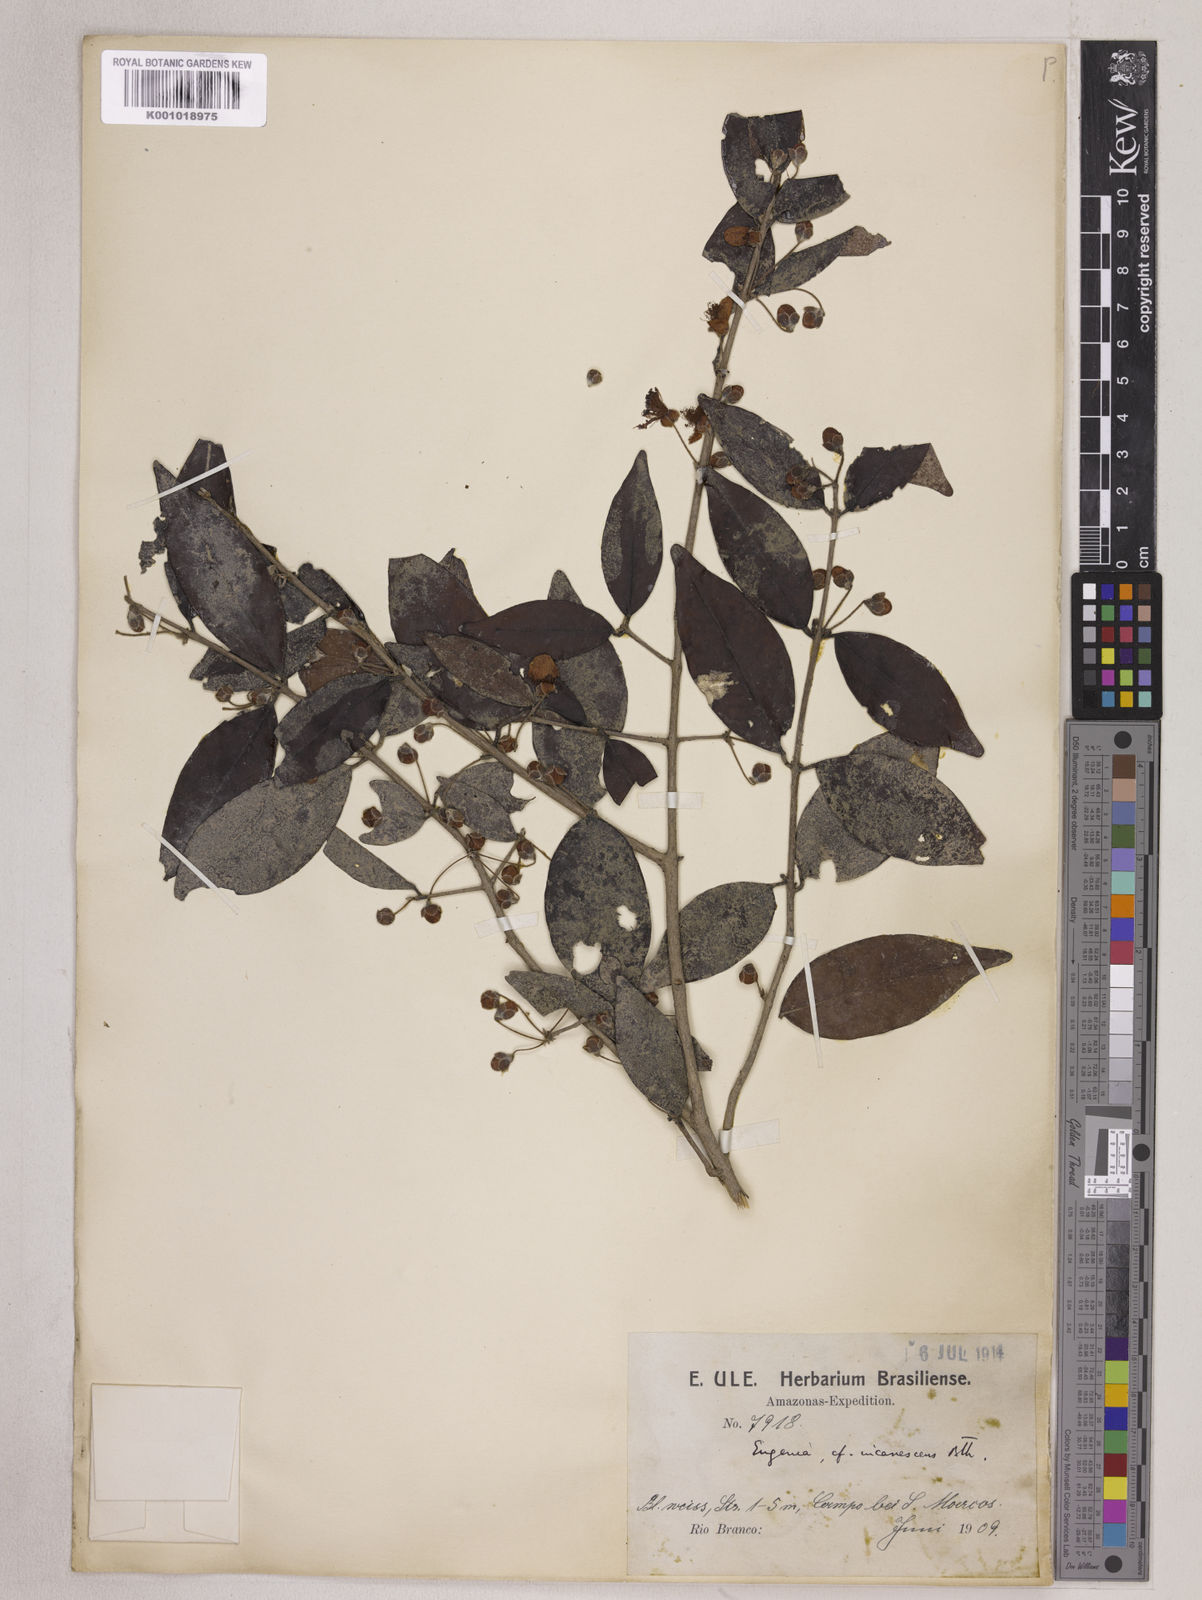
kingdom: Plantae
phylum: Tracheophyta
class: Magnoliopsida
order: Myrtales
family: Myrtaceae
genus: Eugenia
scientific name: Eugenia incanescens
